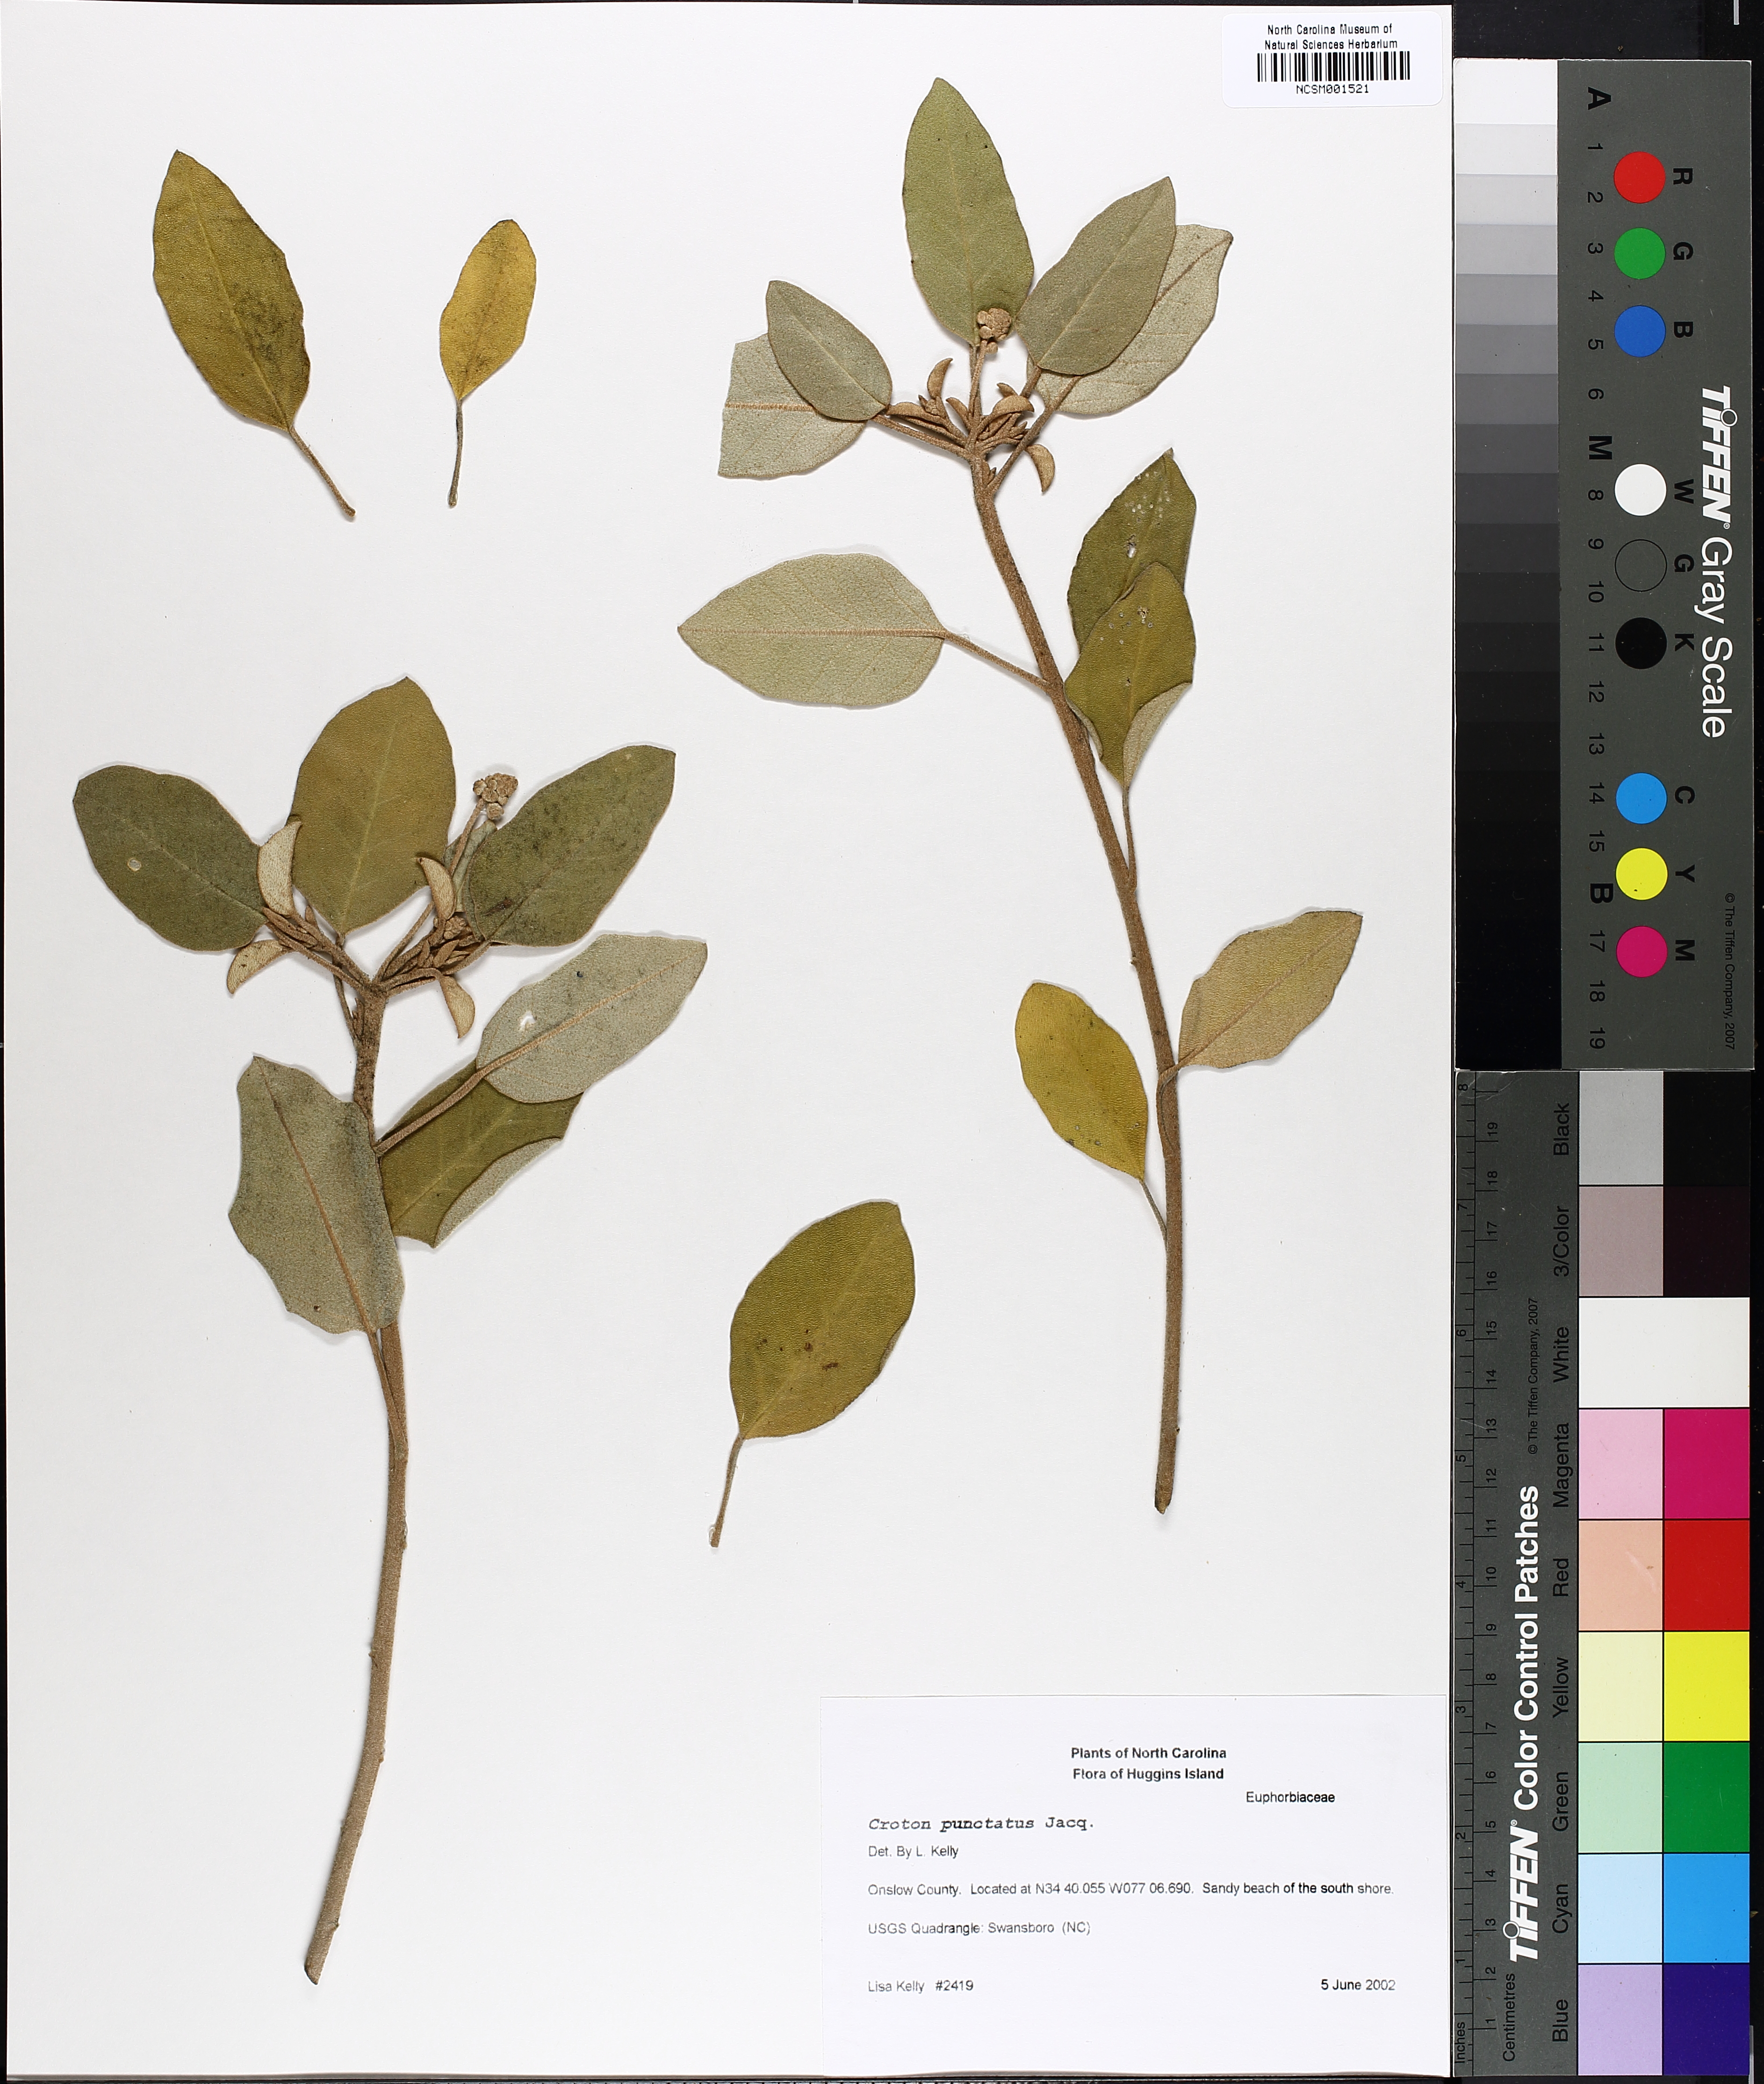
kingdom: Plantae
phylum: Tracheophyta
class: Magnoliopsida
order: Malpighiales
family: Euphorbiaceae
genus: Croton
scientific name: Croton punctatus
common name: Beach-tea
